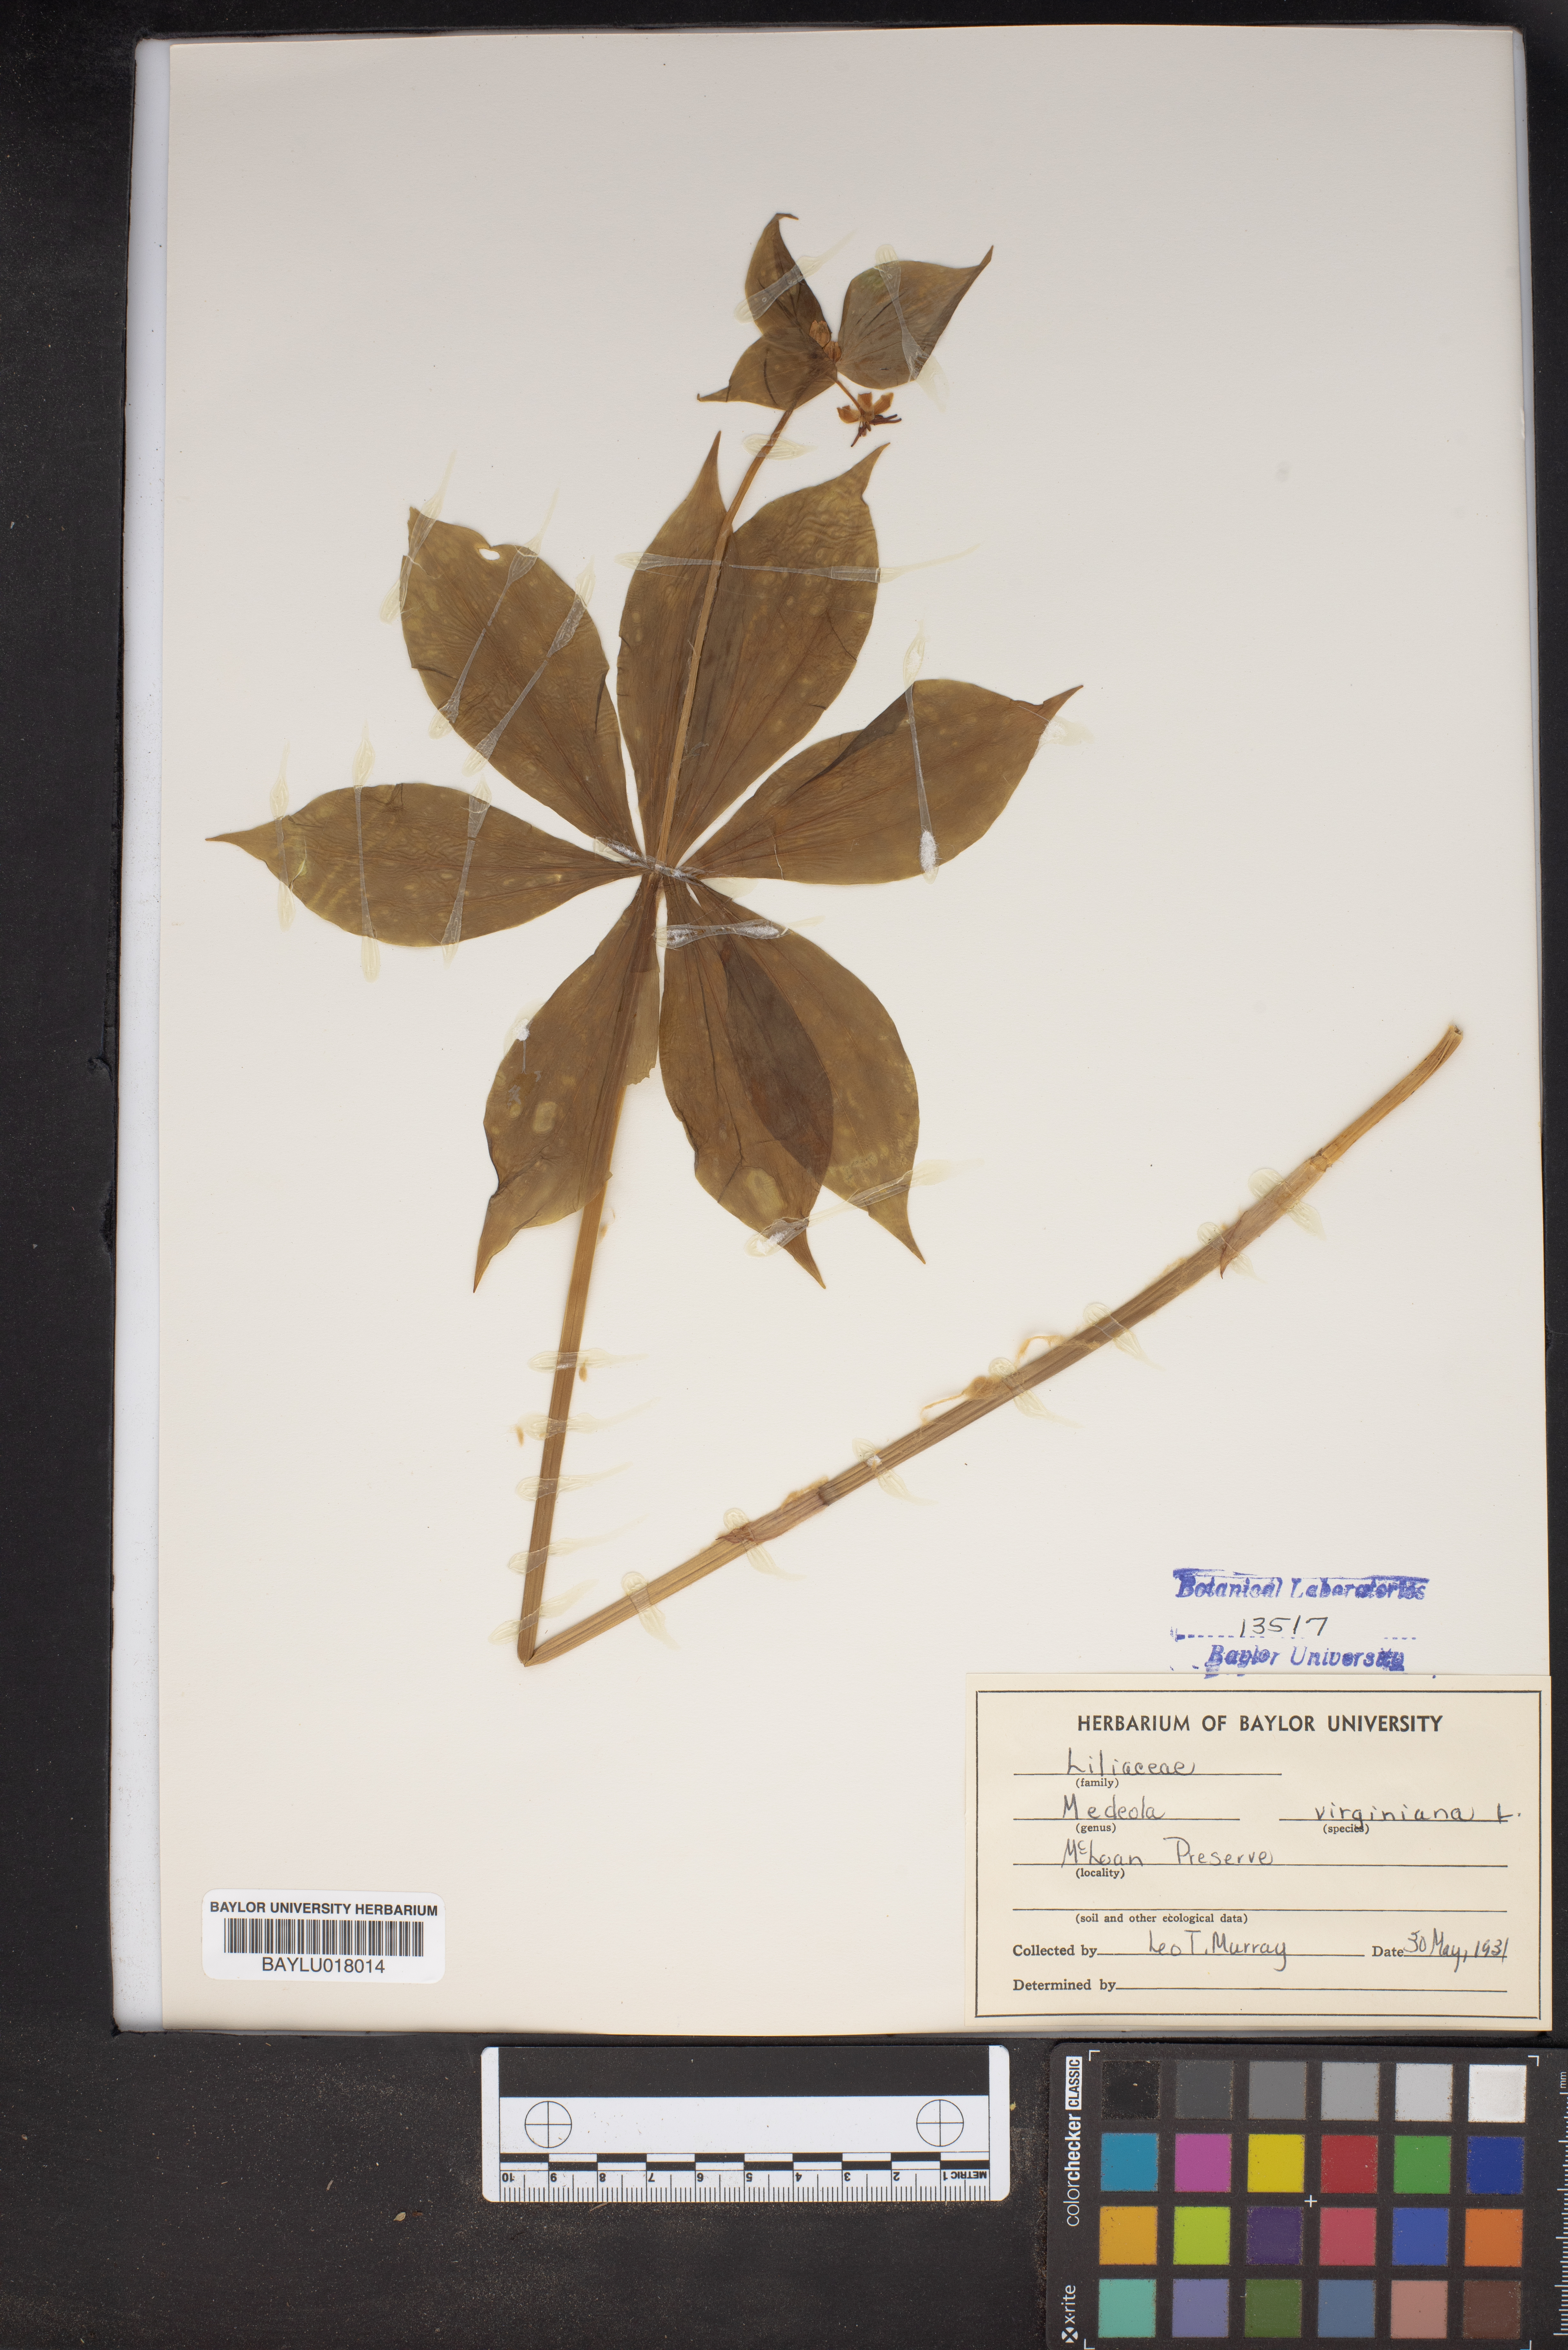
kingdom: Plantae
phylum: Tracheophyta
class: Liliopsida
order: Liliales
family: Liliaceae
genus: Medeola
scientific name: Medeola virginiana
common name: Indian cucumber-root
